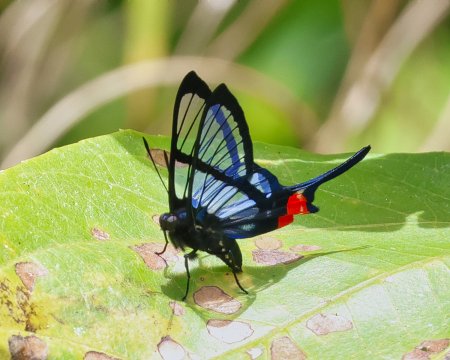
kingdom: Animalia
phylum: Arthropoda
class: Insecta
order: Lepidoptera
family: Riodinidae
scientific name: Riodinidae
